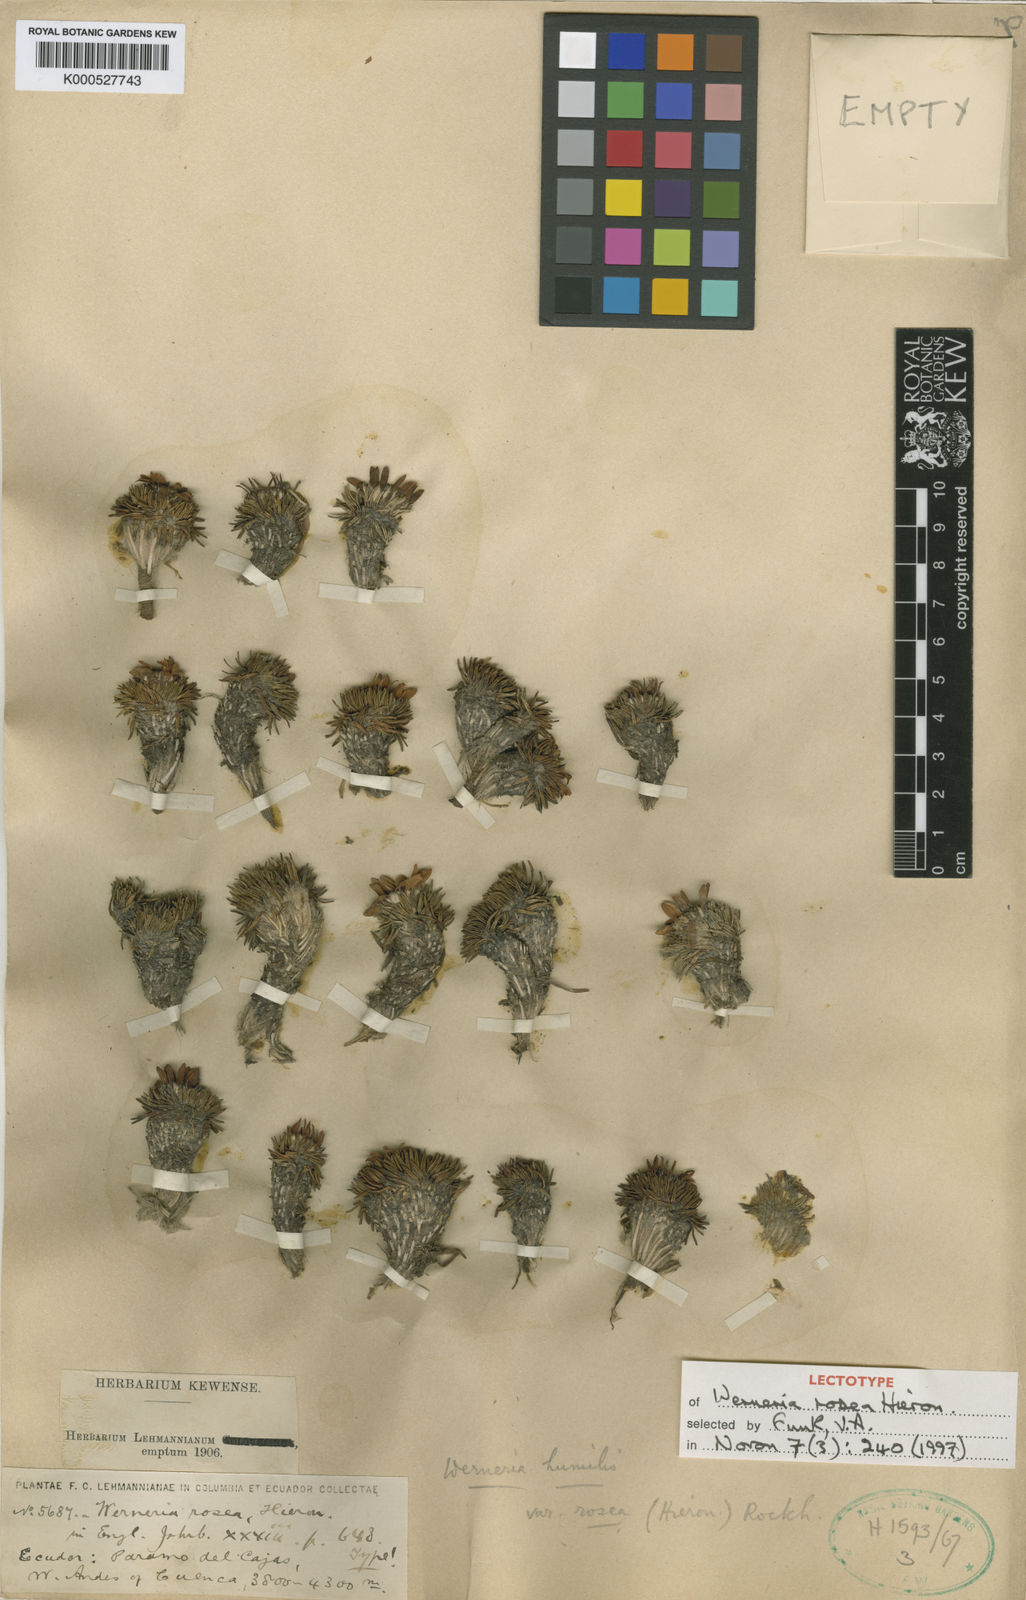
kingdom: Plantae
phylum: Tracheophyta
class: Magnoliopsida
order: Asterales
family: Asteraceae
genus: Werneria
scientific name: Werneria rosea
